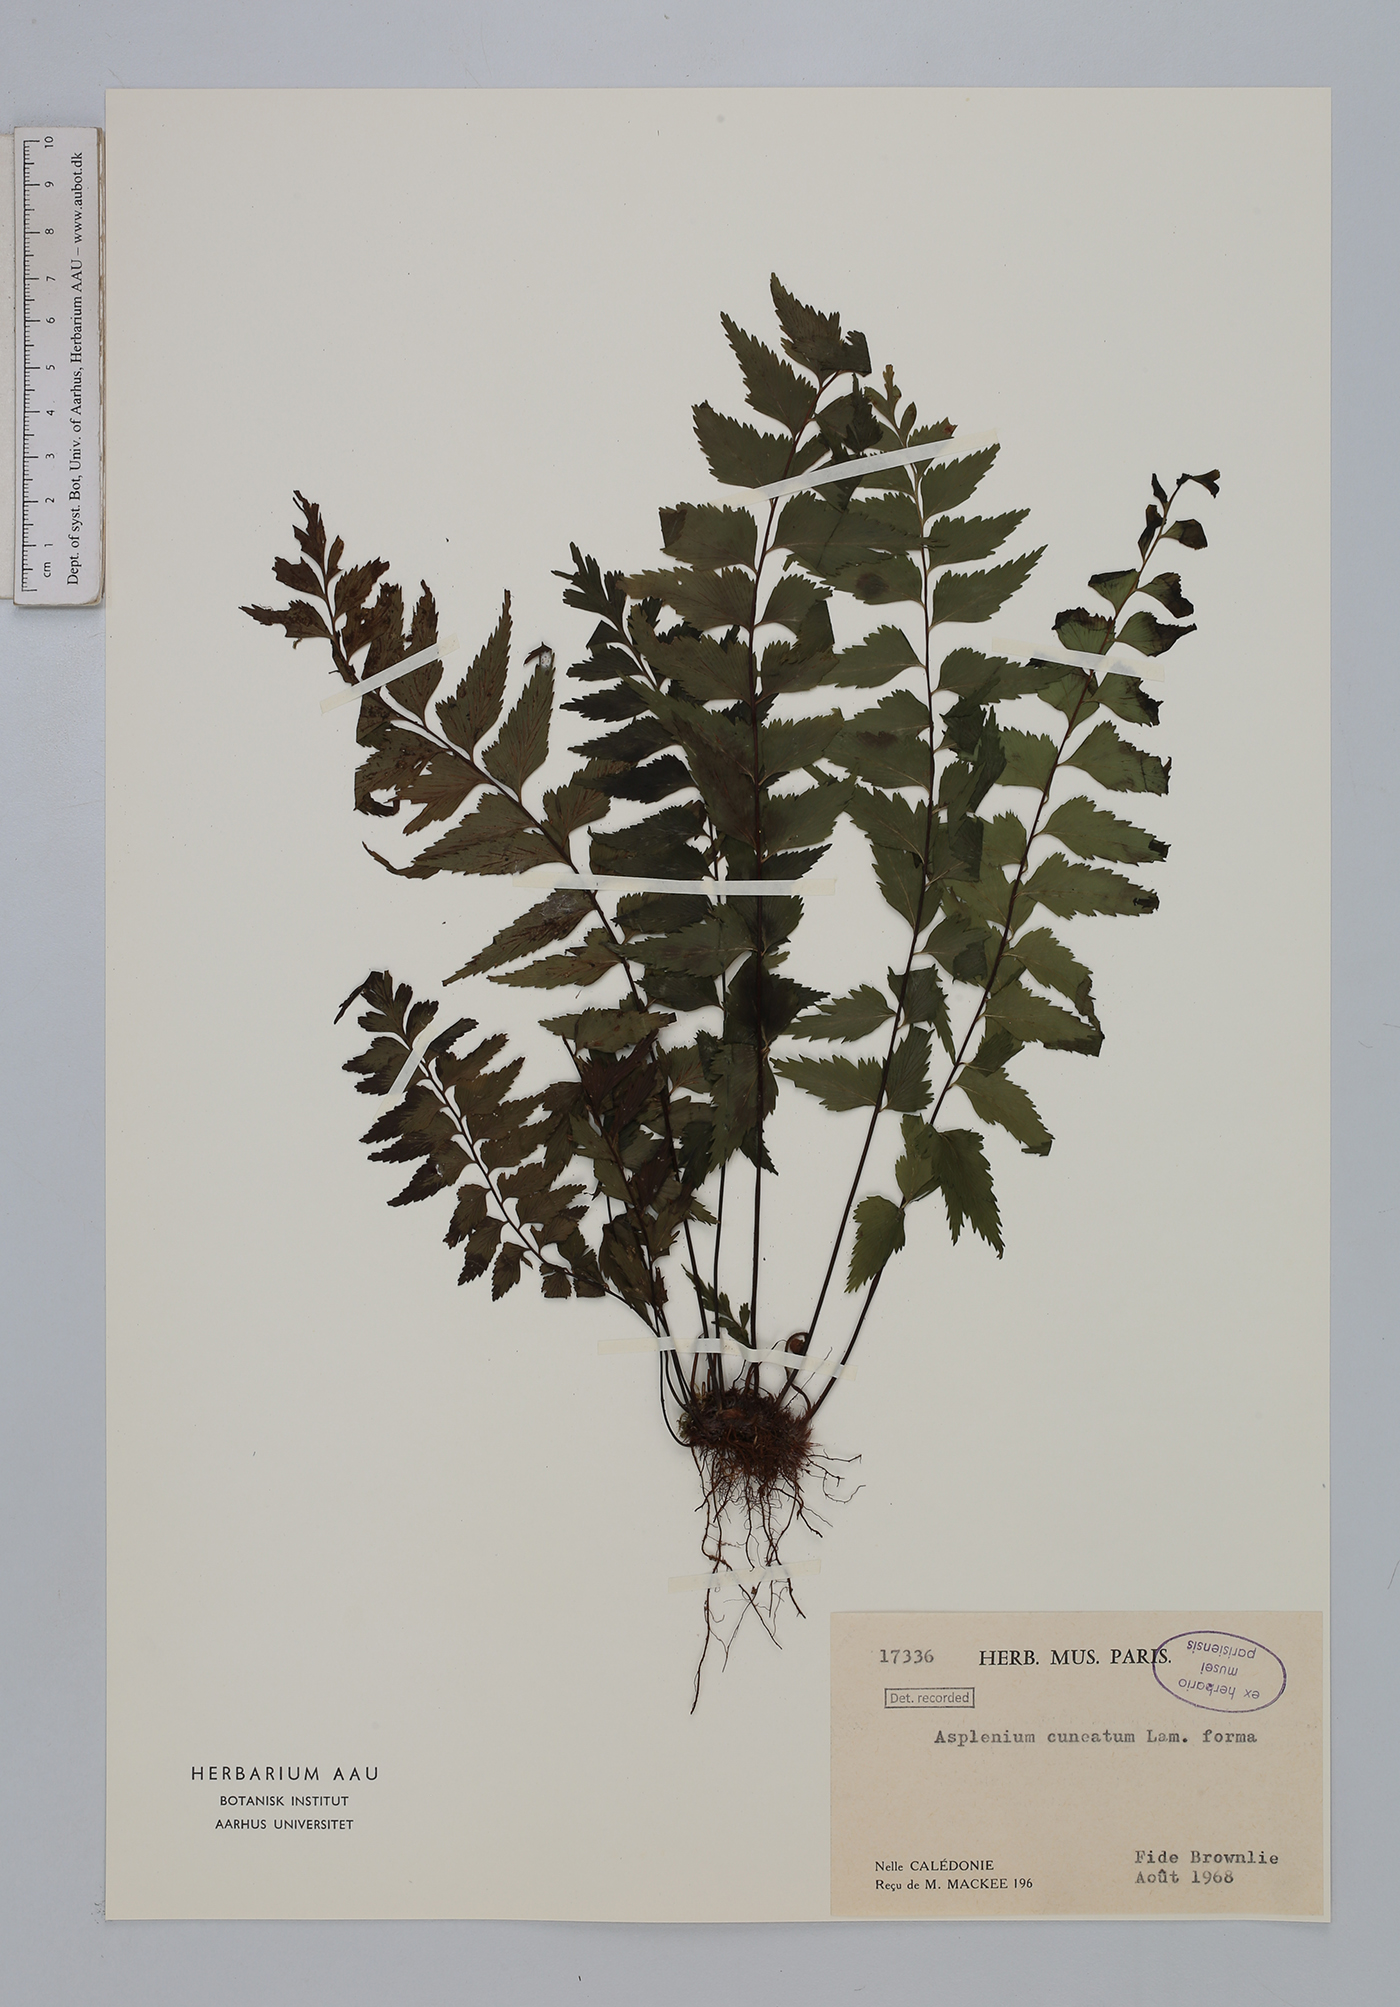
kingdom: Plantae
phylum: Tracheophyta
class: Polypodiopsida
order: Polypodiales
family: Aspleniaceae
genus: Asplenium
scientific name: Asplenium cuneatum
